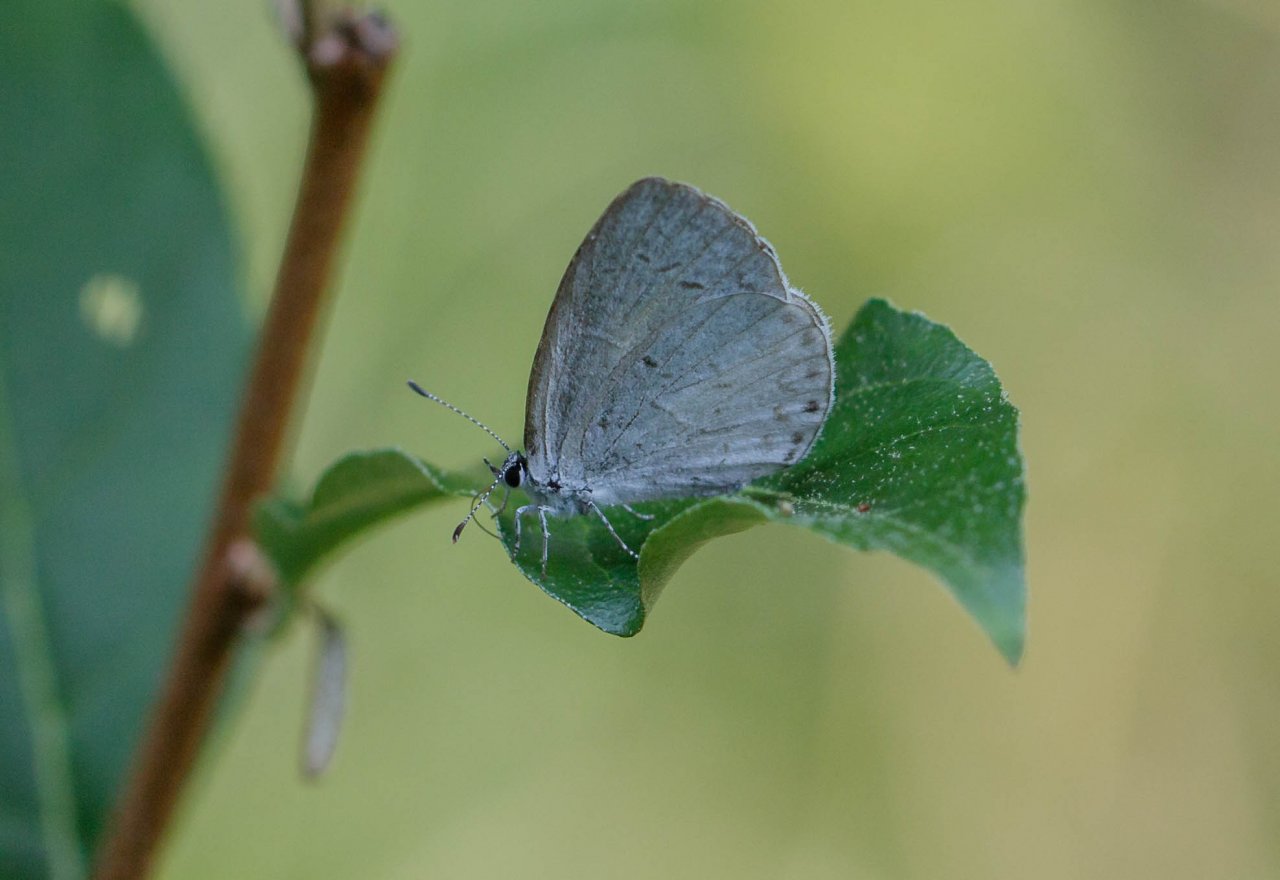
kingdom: Animalia
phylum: Arthropoda
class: Insecta
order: Lepidoptera
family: Lycaenidae
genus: Cyaniris
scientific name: Cyaniris neglecta
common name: Summer Azure
